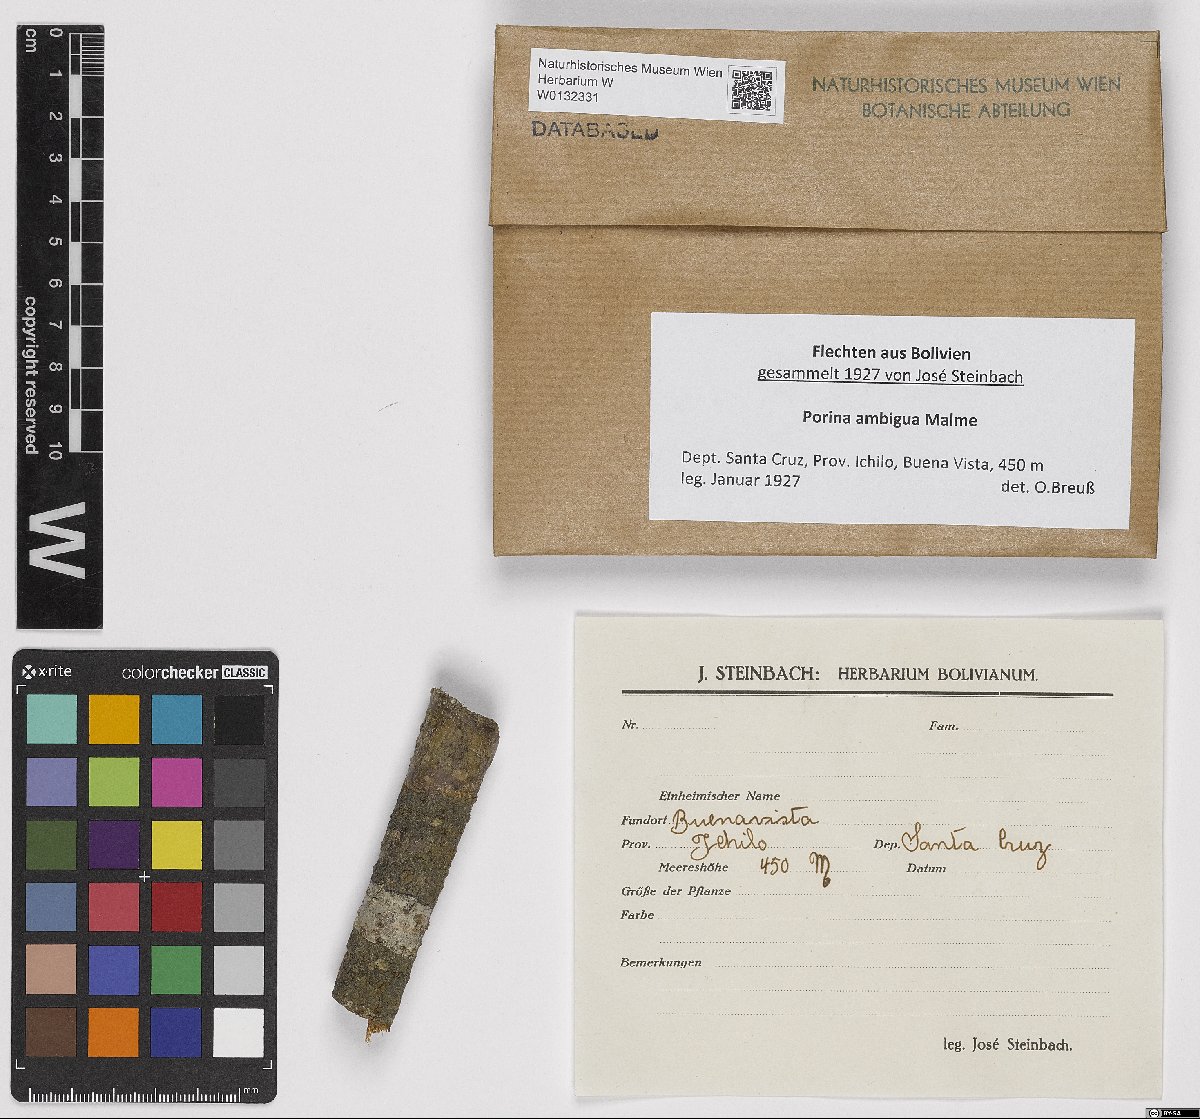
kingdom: Fungi
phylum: Ascomycota
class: Lecanoromycetes
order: Ostropales
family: Porinaceae
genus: Porina
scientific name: Porina ambigua
